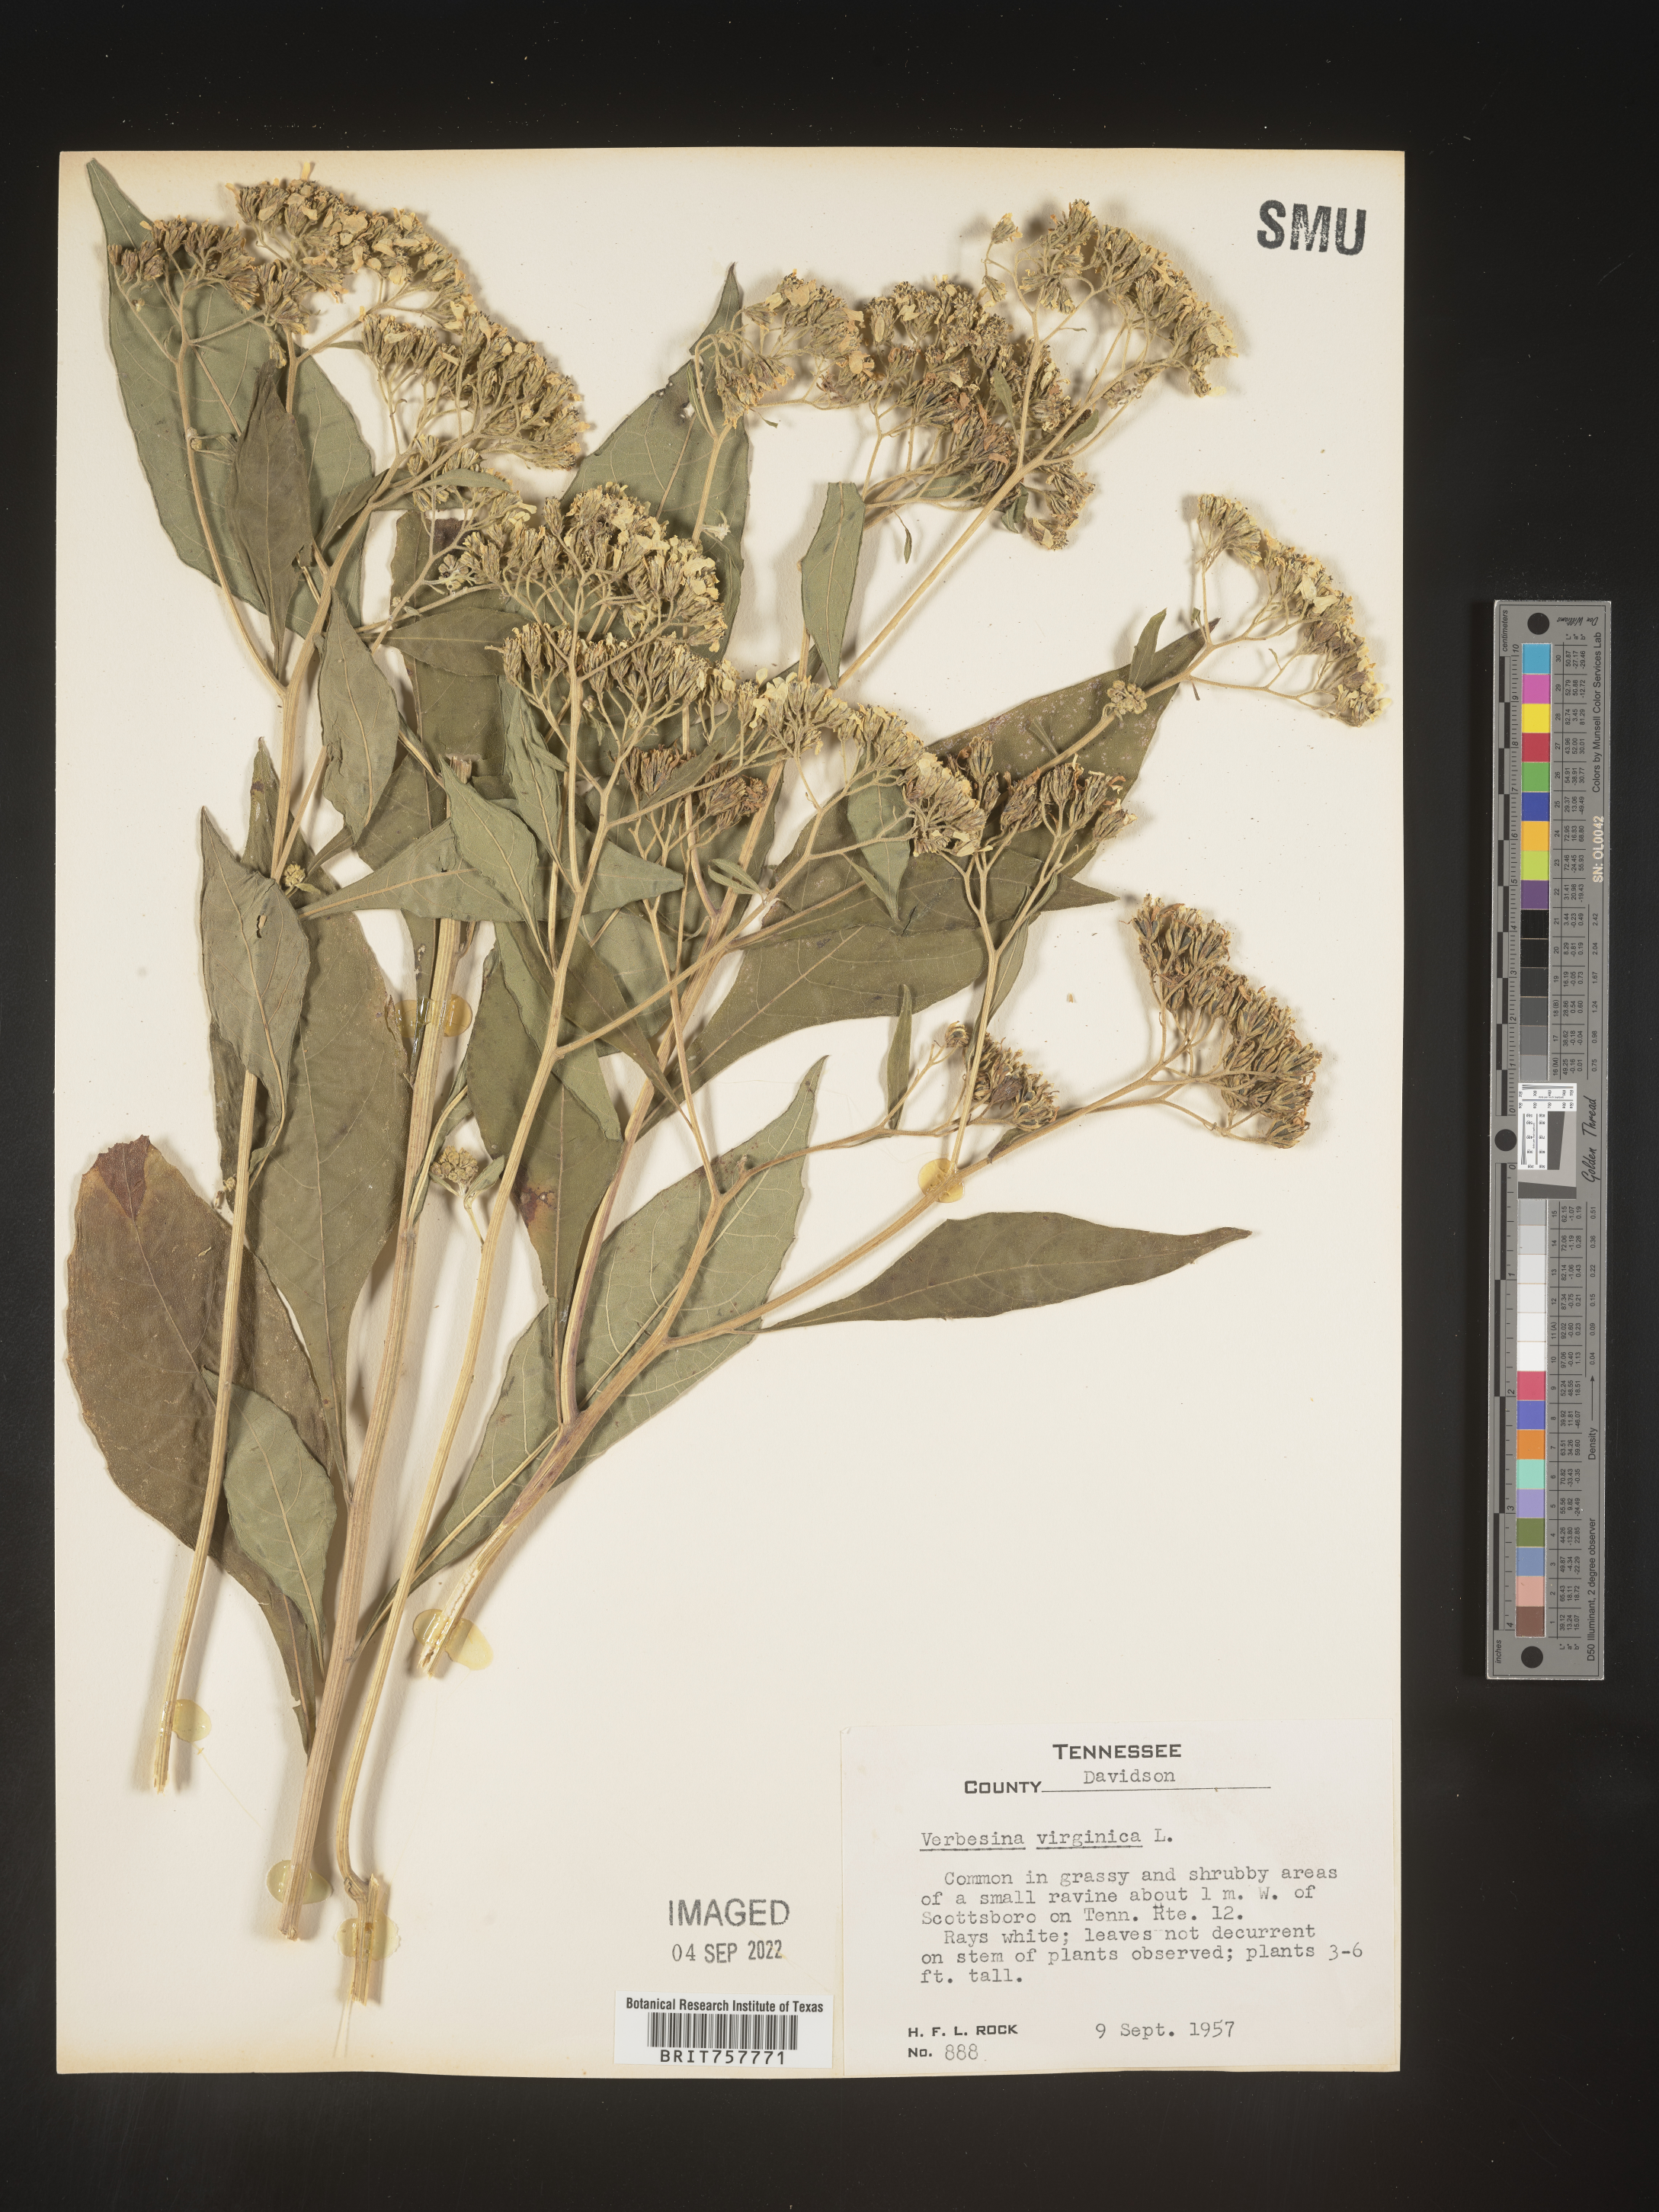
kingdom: Plantae
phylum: Tracheophyta
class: Magnoliopsida
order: Asterales
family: Asteraceae
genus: Verbesina
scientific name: Verbesina virginica
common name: Frostweed
